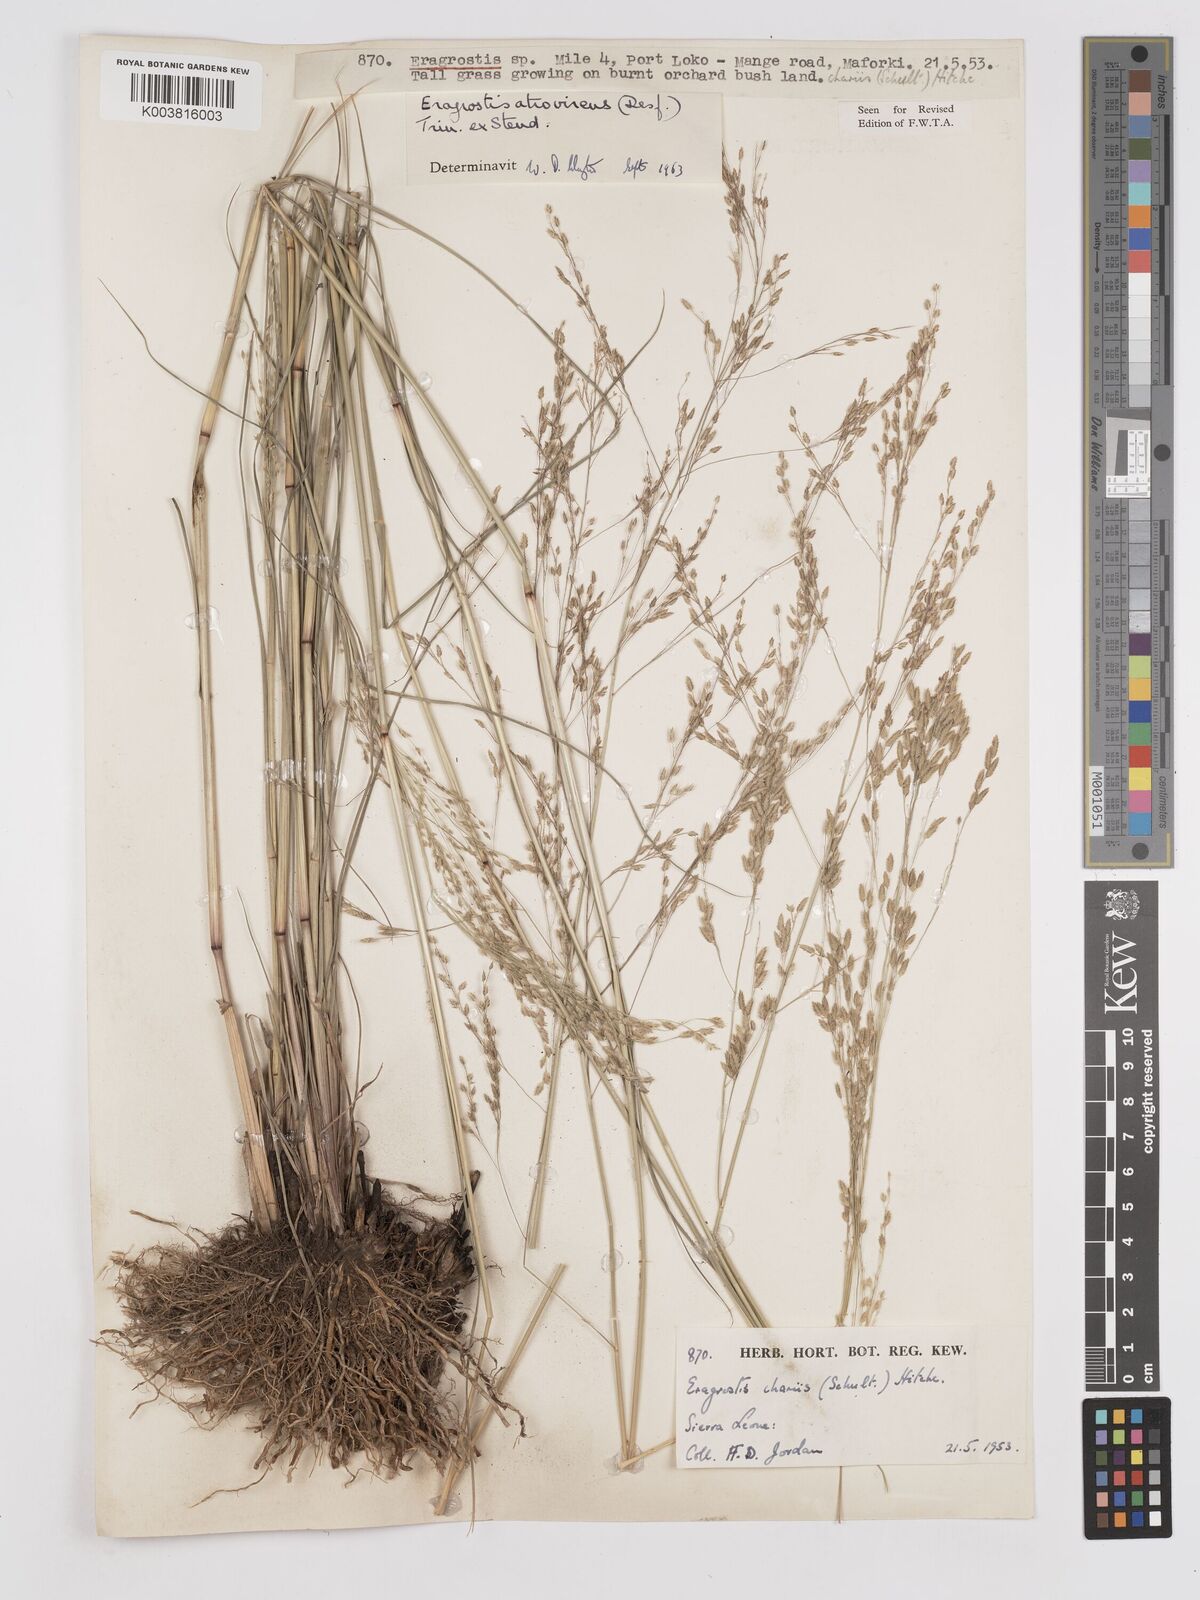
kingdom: Plantae
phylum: Tracheophyta
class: Liliopsida
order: Poales
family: Poaceae
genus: Eragrostis
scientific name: Eragrostis atrovirens
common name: Thalia lovegrass
